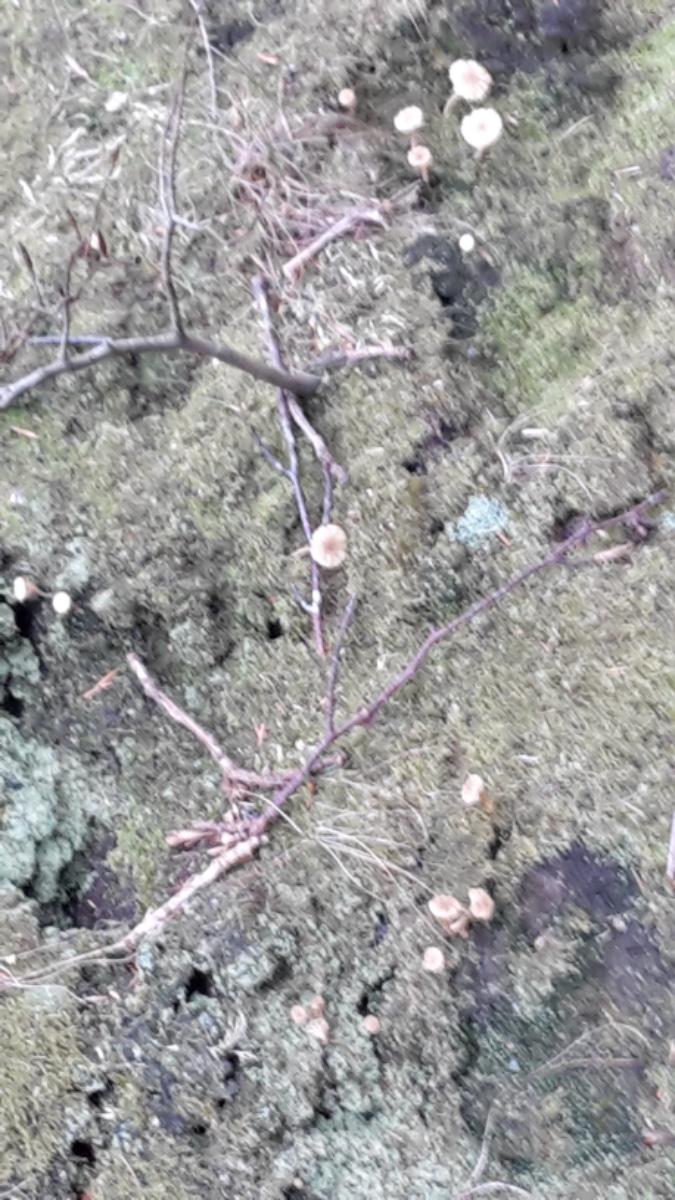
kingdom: Fungi
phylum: Basidiomycota
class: Agaricomycetes
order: Agaricales
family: Hygrophoraceae
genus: Lichenomphalia
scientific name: Lichenomphalia umbellifera
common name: tørve-lavhat
